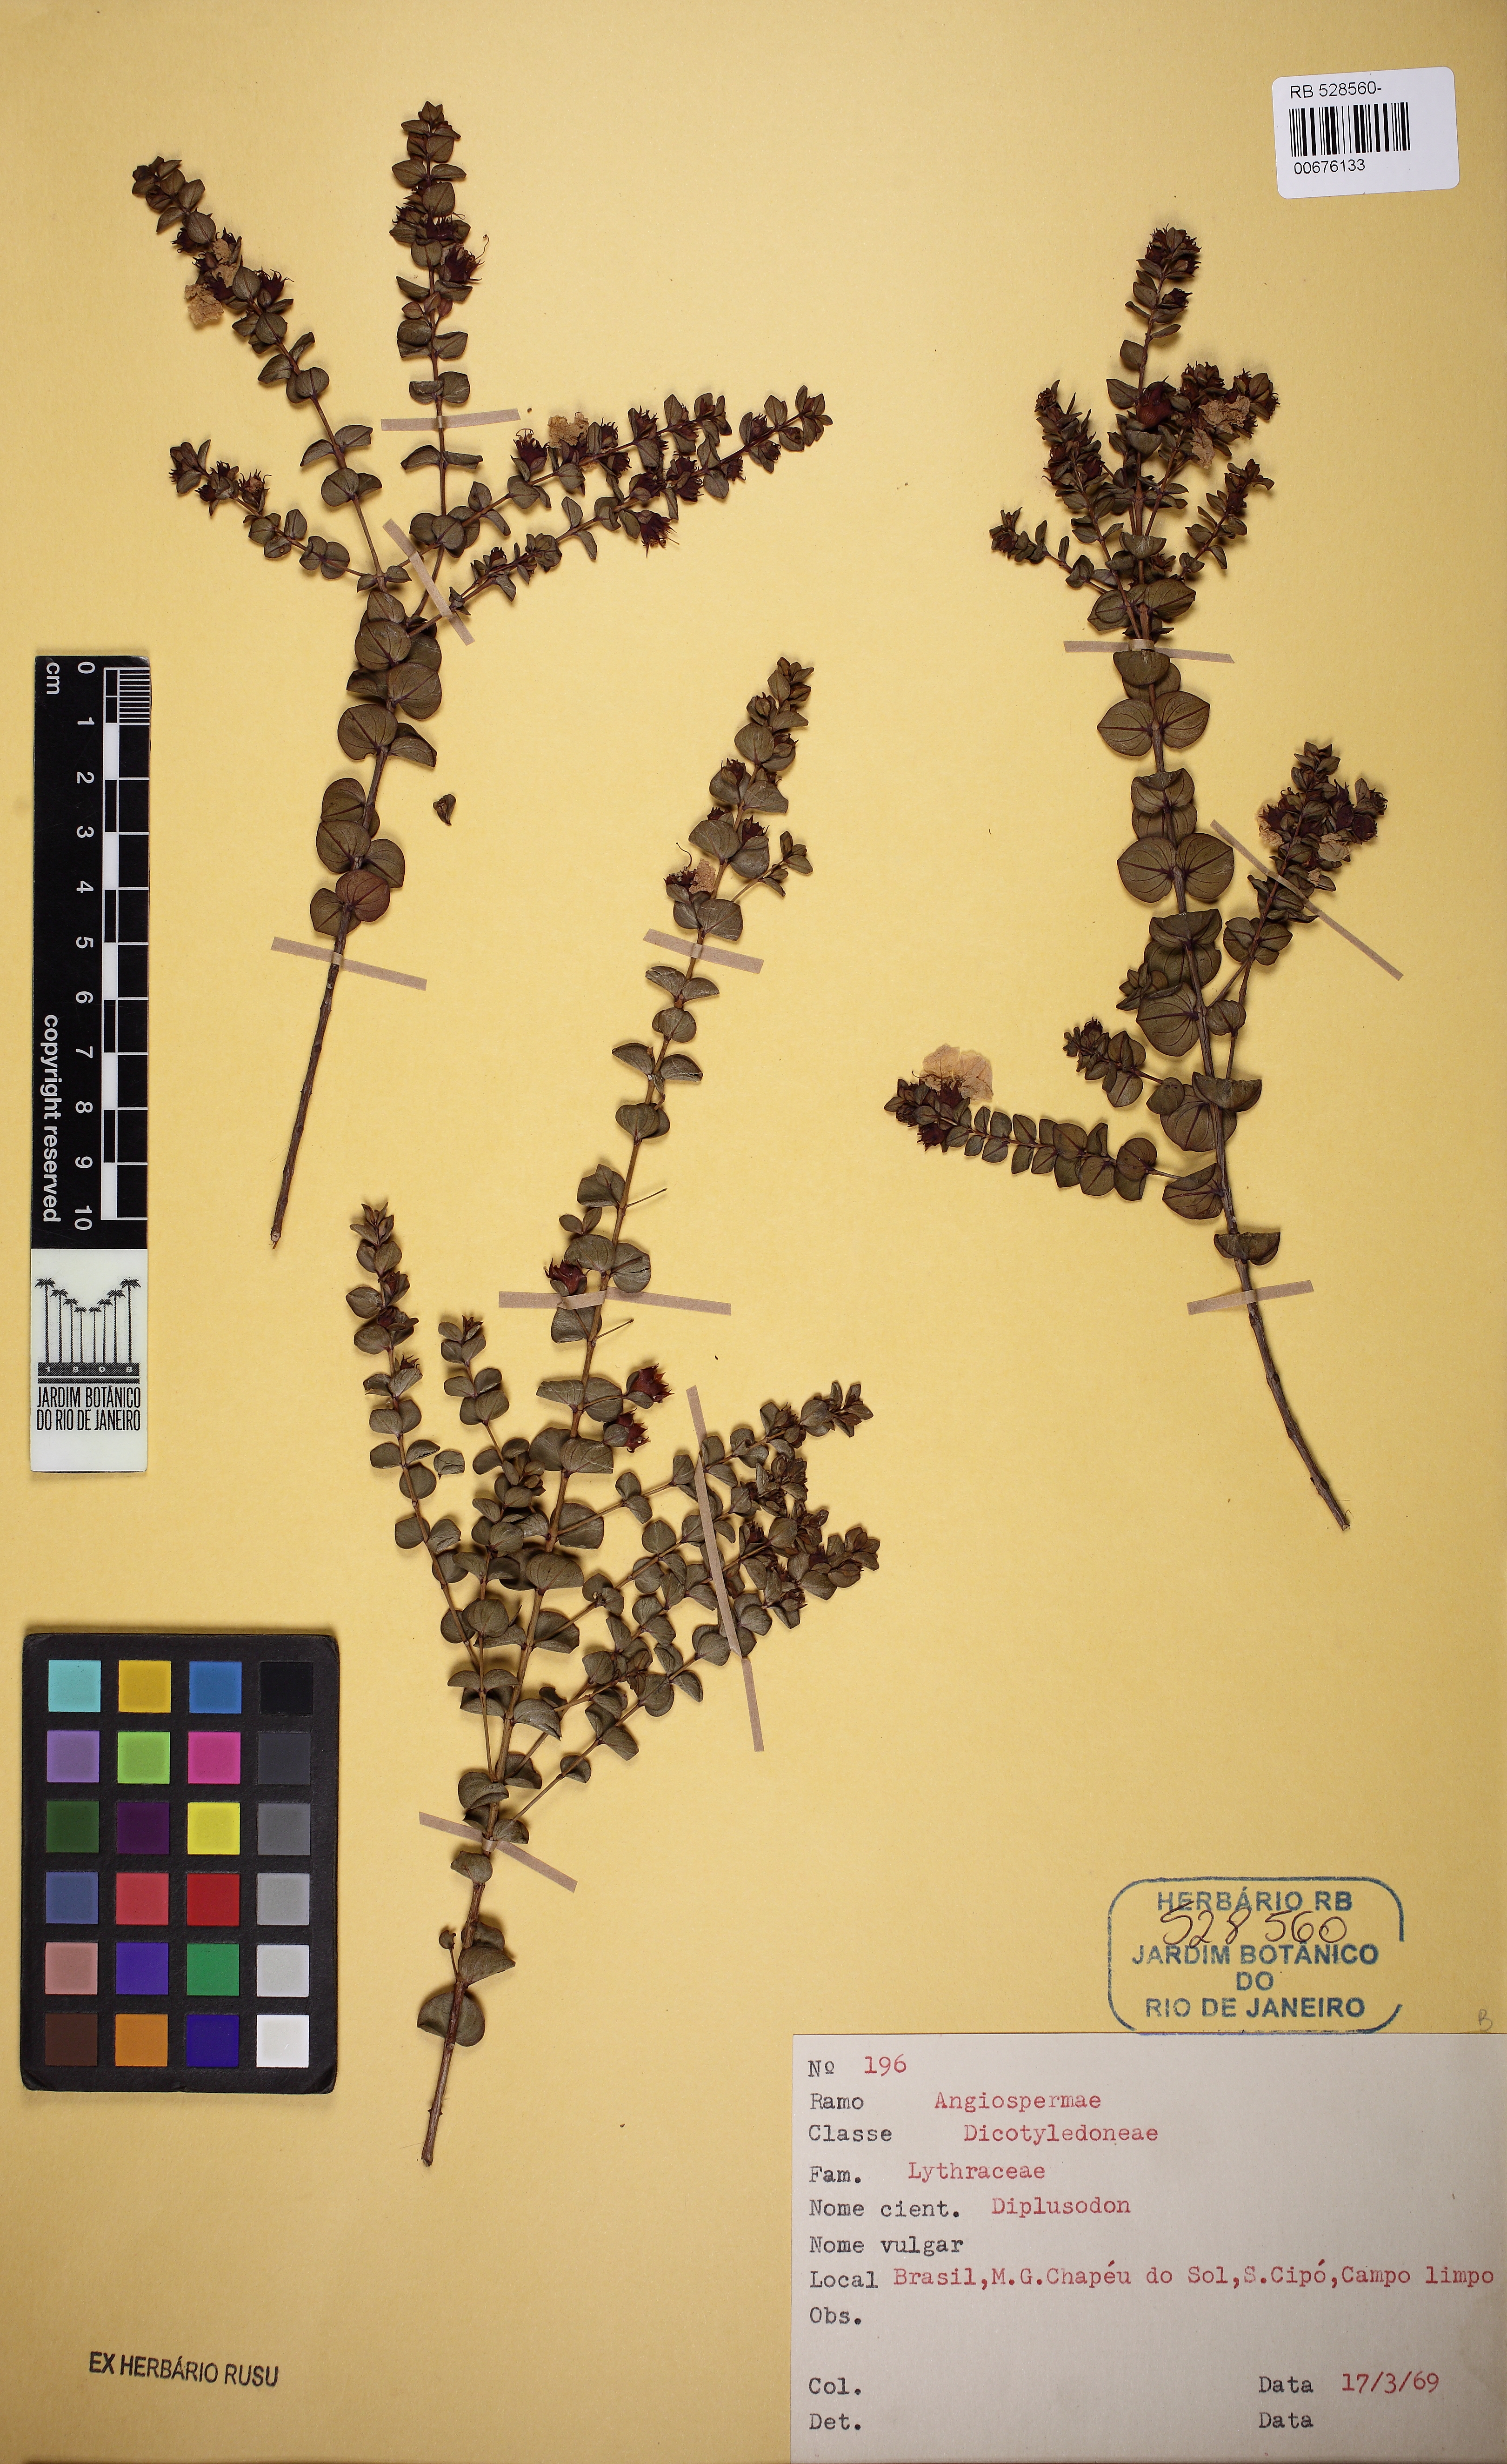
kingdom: Plantae
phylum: Tracheophyta
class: Magnoliopsida
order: Myrtales
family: Lythraceae
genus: Diplusodon
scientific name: Diplusodon orbicularis
